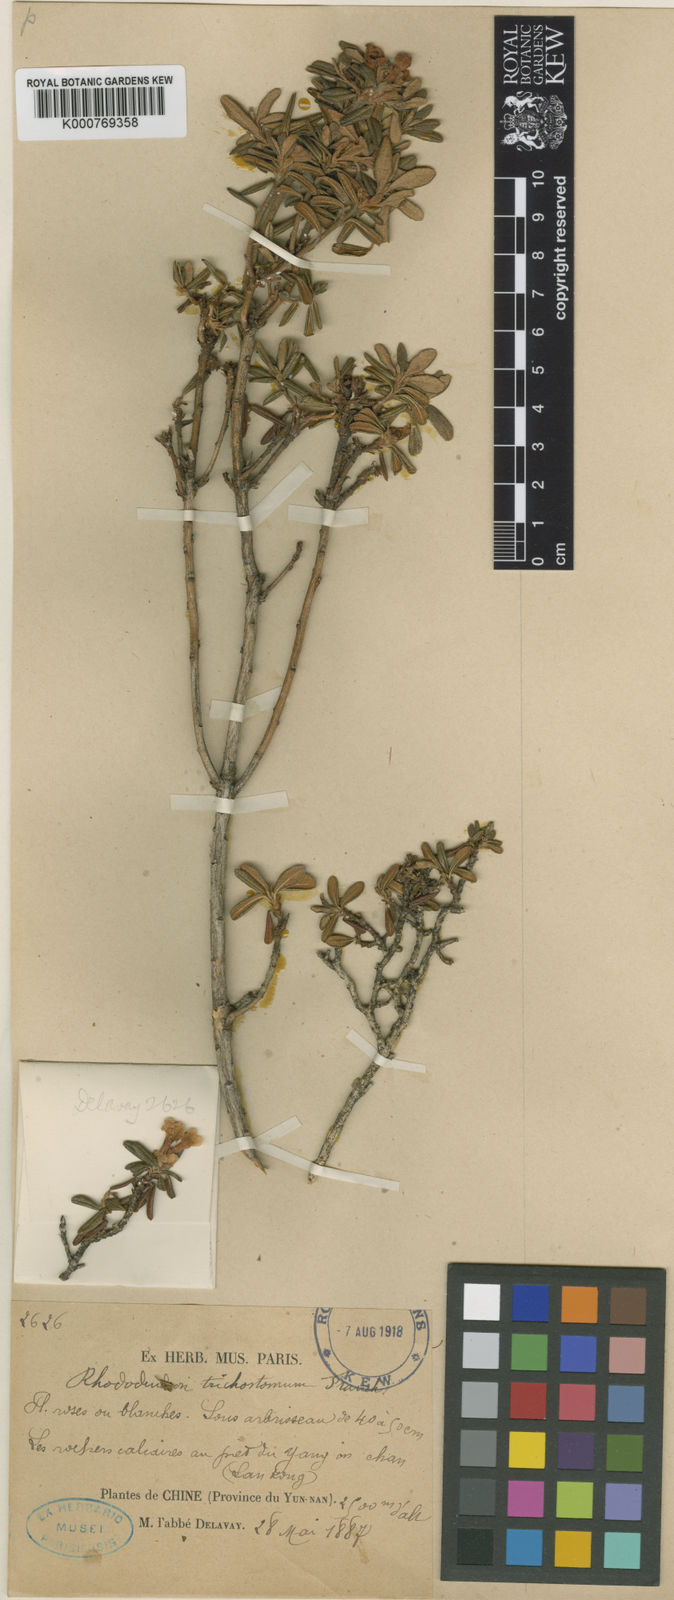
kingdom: Plantae
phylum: Tracheophyta
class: Magnoliopsida
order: Ericales
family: Ericaceae
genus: Rhododendron
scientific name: Rhododendron trichostomum
